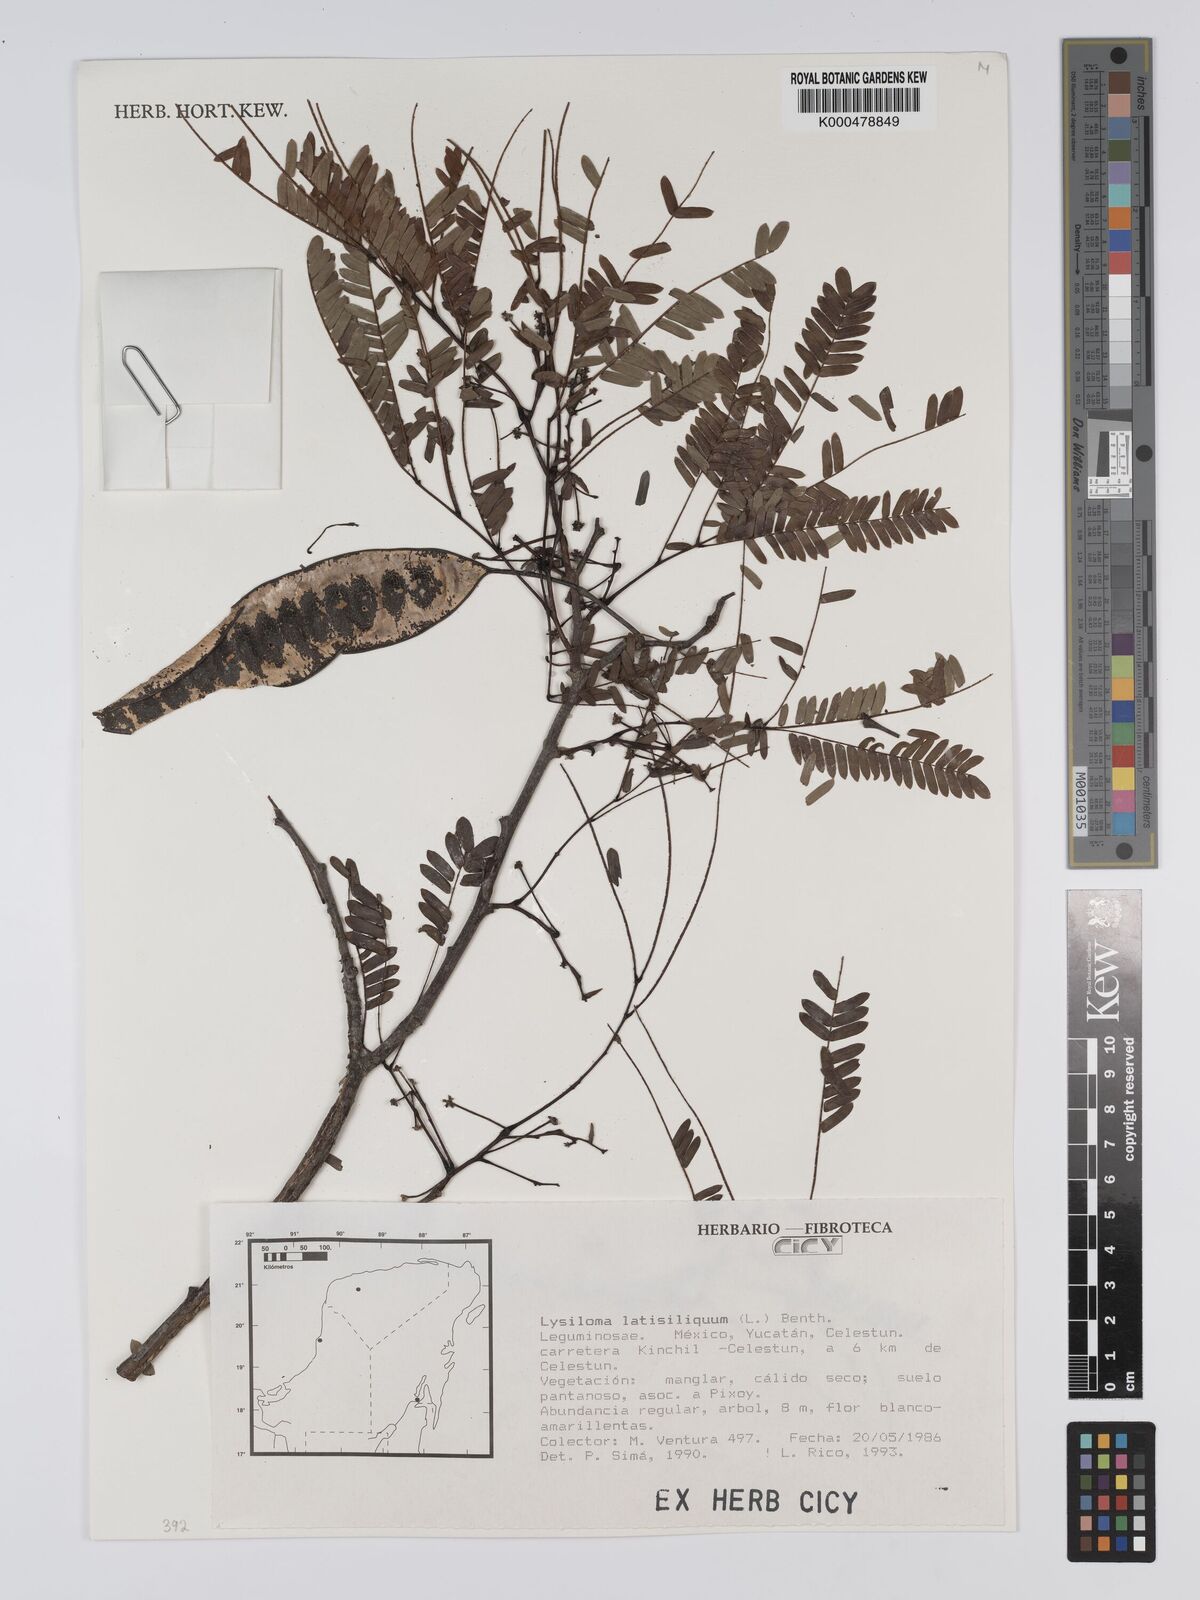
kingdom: Plantae
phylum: Tracheophyta
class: Magnoliopsida
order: Fabales
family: Fabaceae
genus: Lysiloma
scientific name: Lysiloma latisiliquum
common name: Wild tamarind
